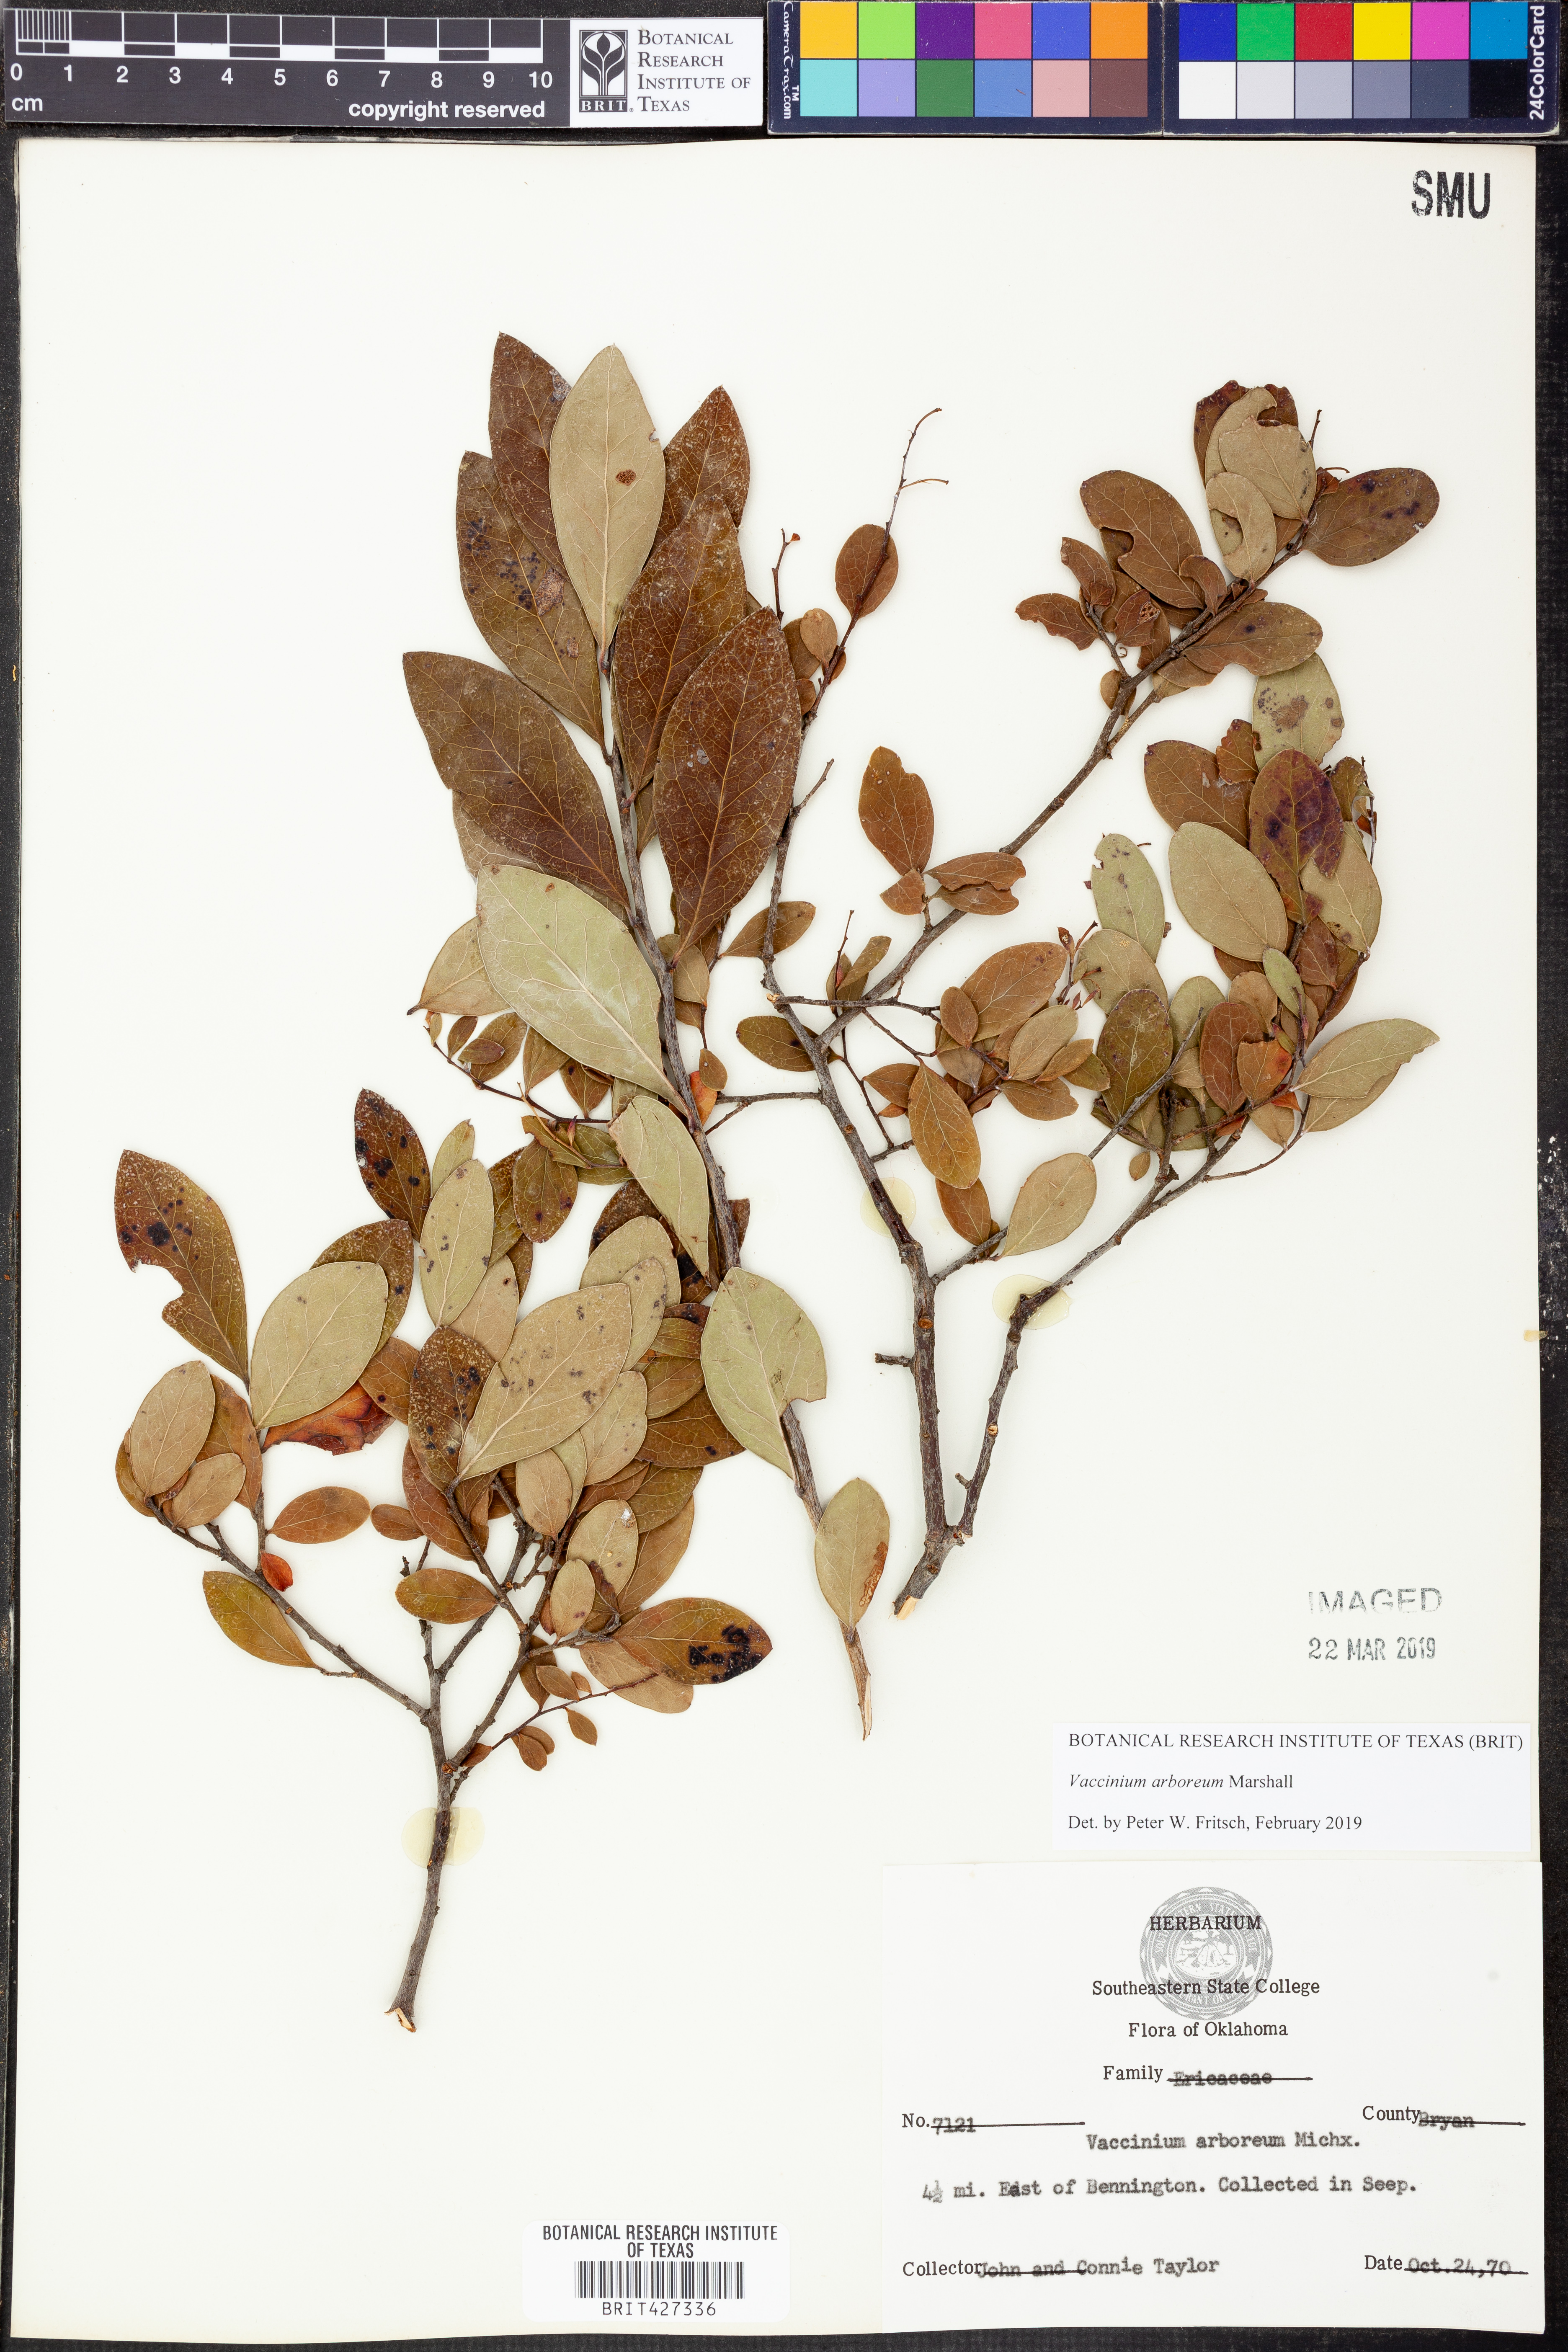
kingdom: Plantae
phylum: Tracheophyta
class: Magnoliopsida
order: Ericales
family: Ericaceae
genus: Vaccinium
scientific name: Vaccinium arboreum
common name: Farkleberry
